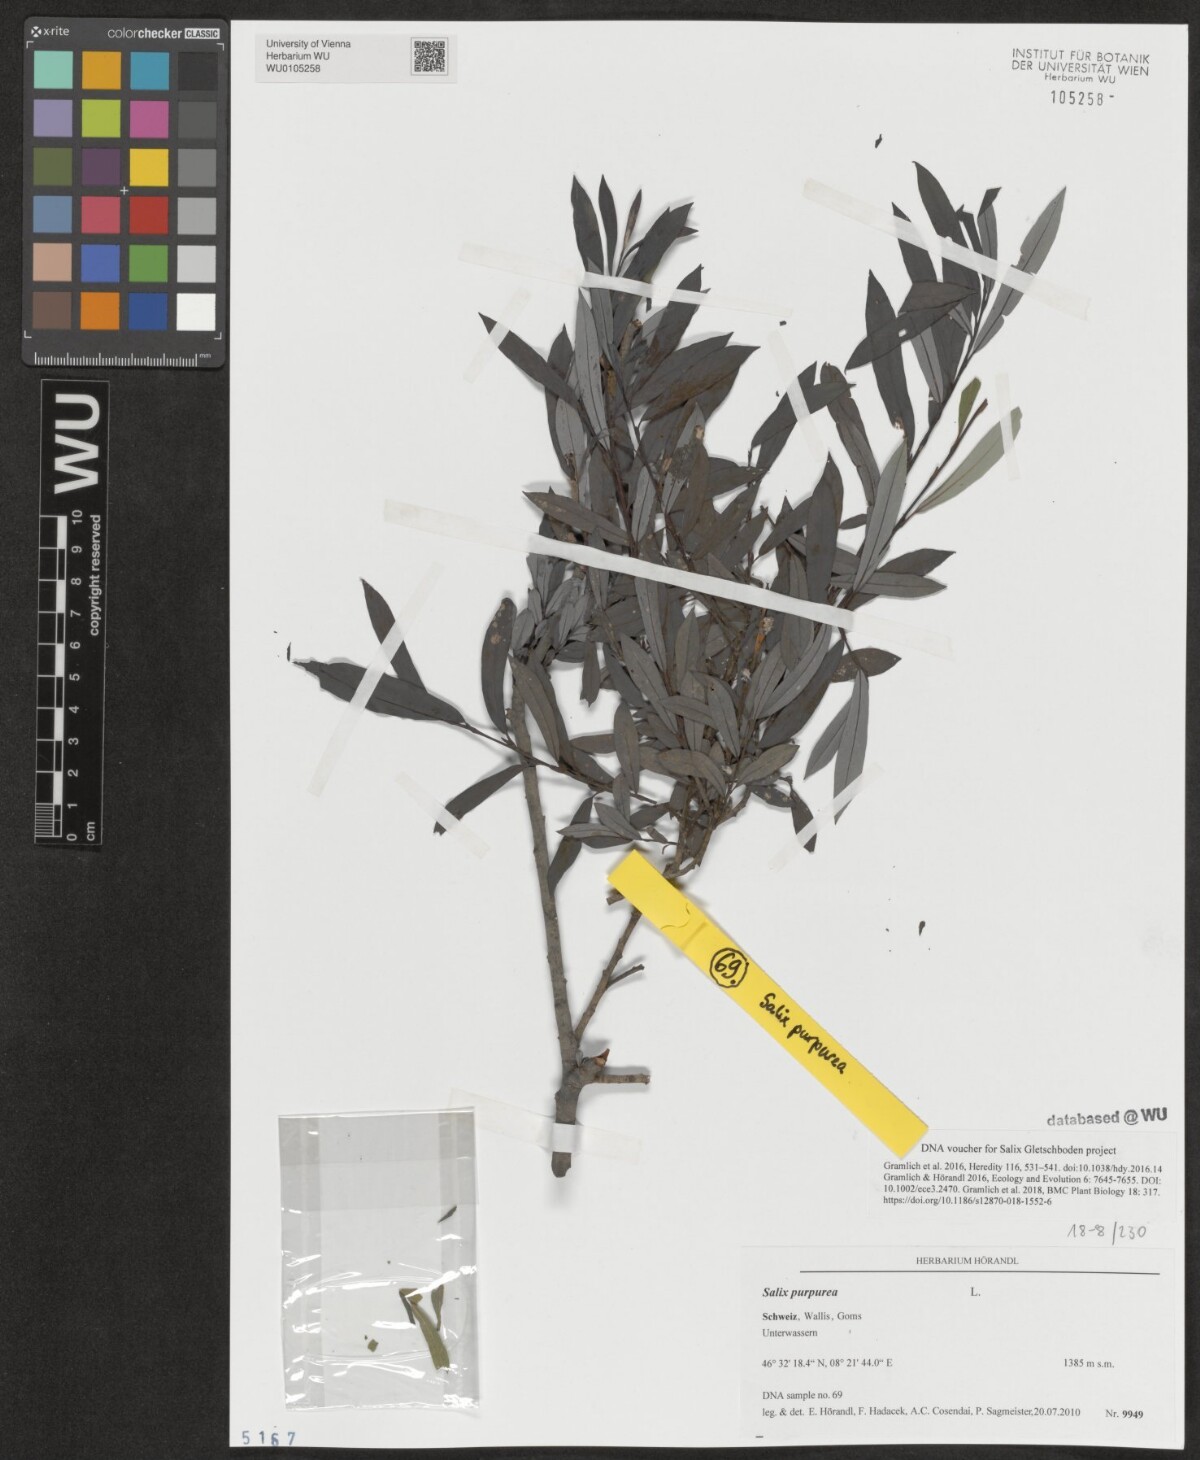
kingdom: Plantae
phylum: Tracheophyta
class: Magnoliopsida
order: Malpighiales
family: Salicaceae
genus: Salix
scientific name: Salix purpurea
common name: Purple willow
